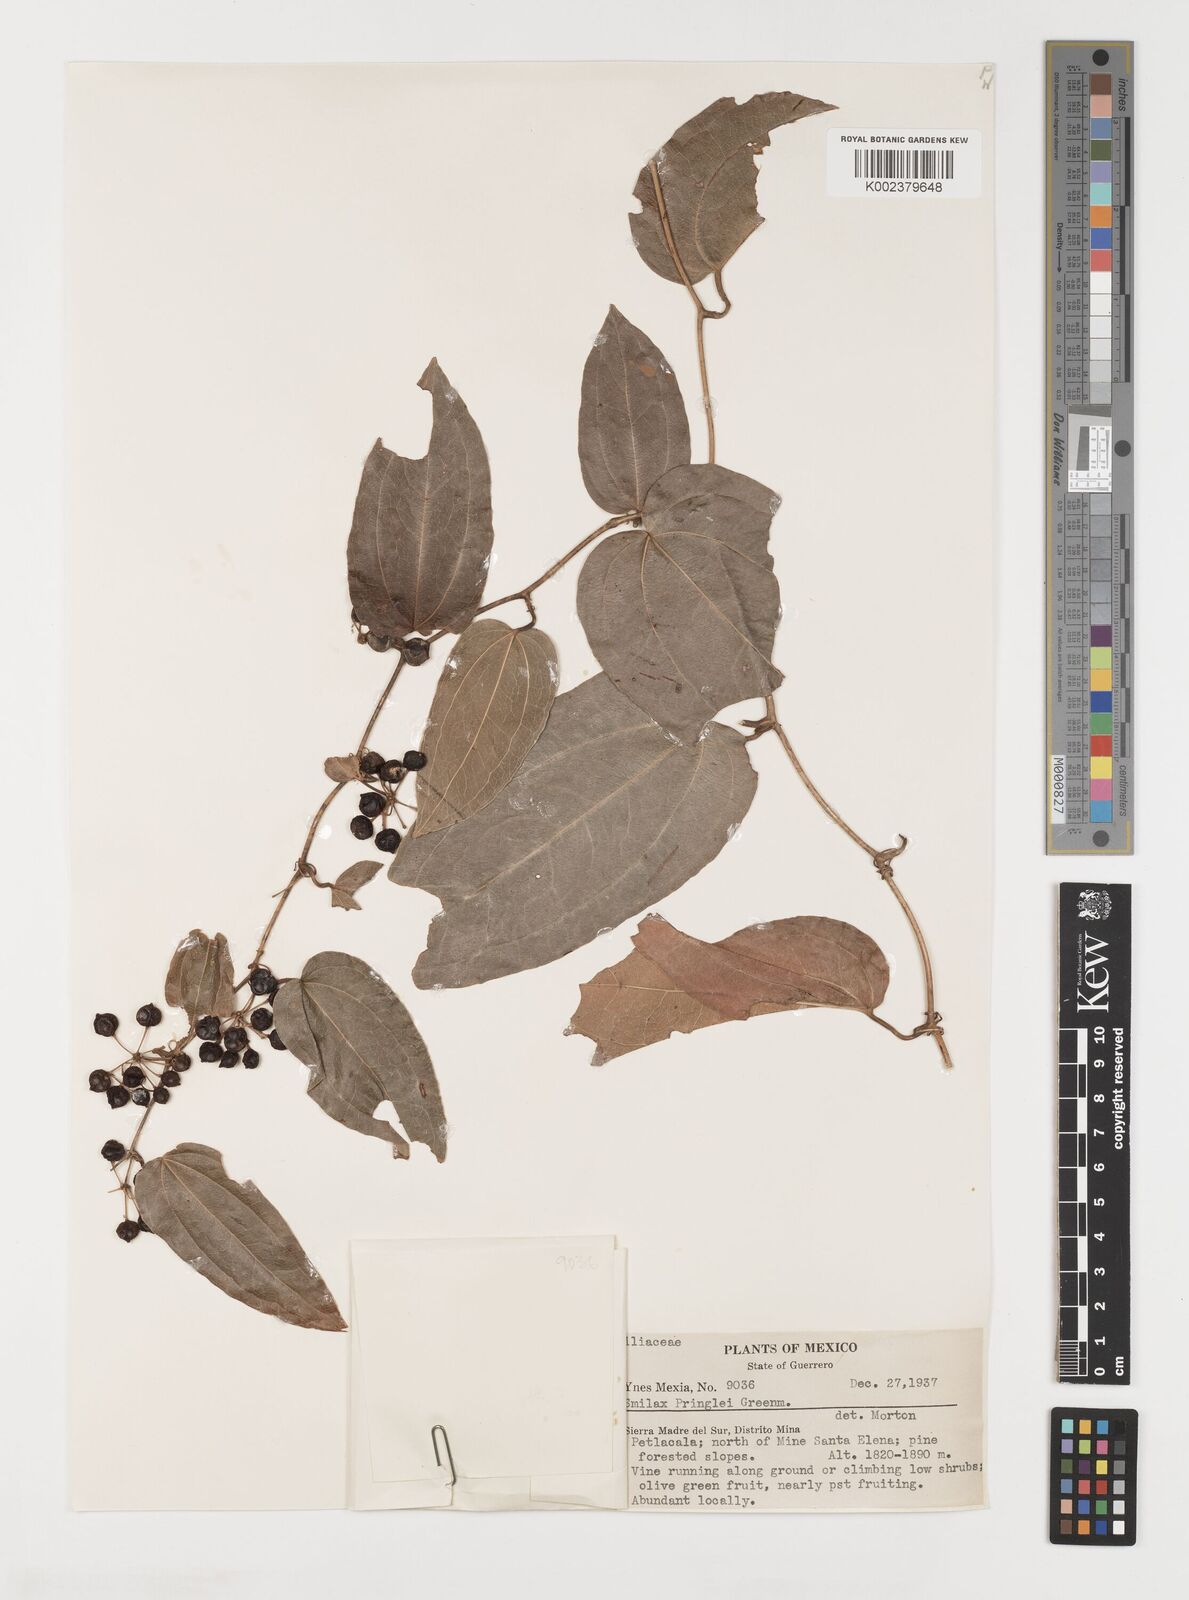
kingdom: Plantae
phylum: Tracheophyta
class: Liliopsida
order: Liliales
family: Smilacaceae
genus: Smilax
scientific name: Smilax mollis
